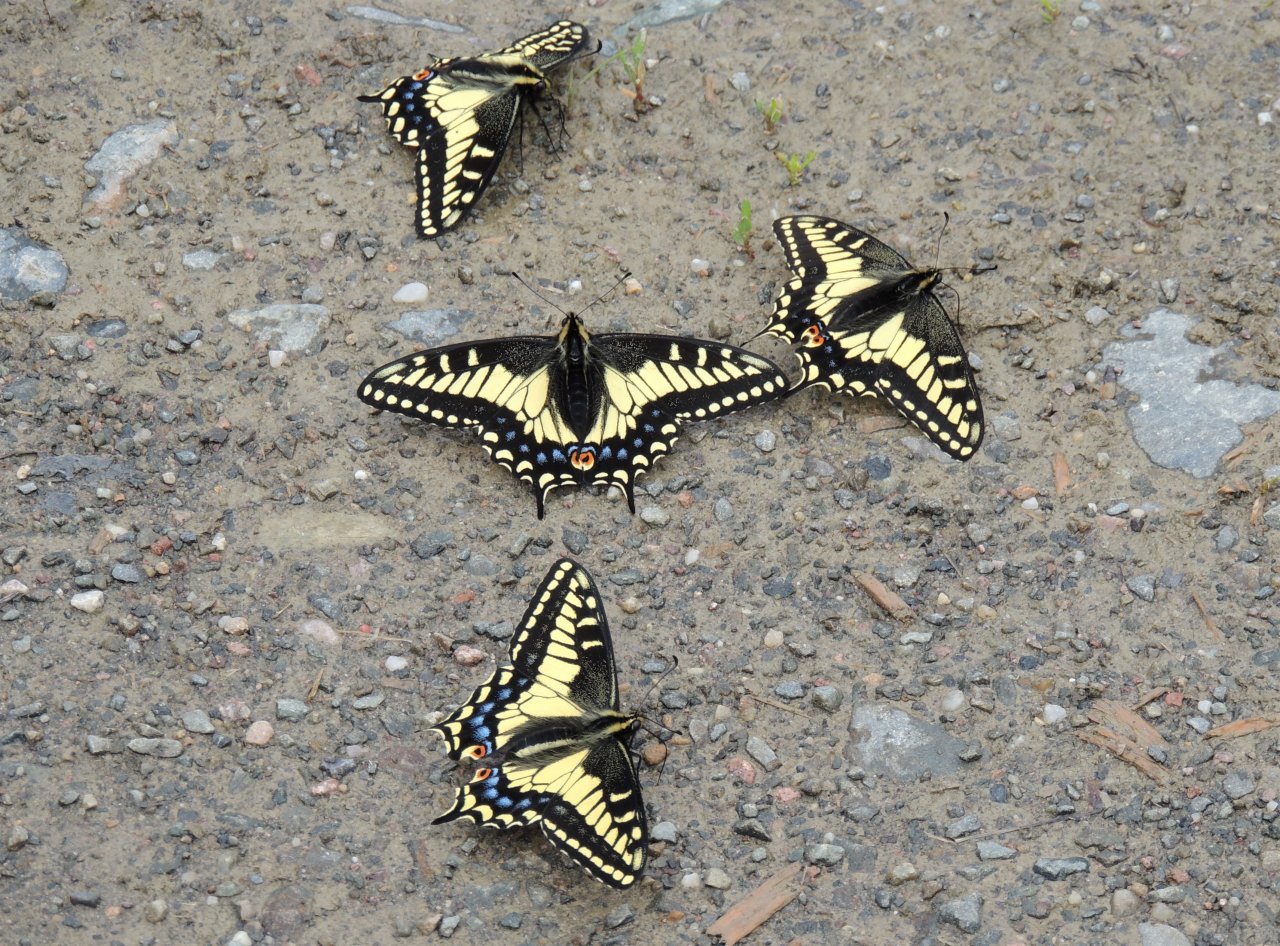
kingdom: Animalia
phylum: Arthropoda
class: Insecta
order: Lepidoptera
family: Papilionidae
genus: Papilio
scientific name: Papilio zelicaon
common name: Anise Swallowtail
